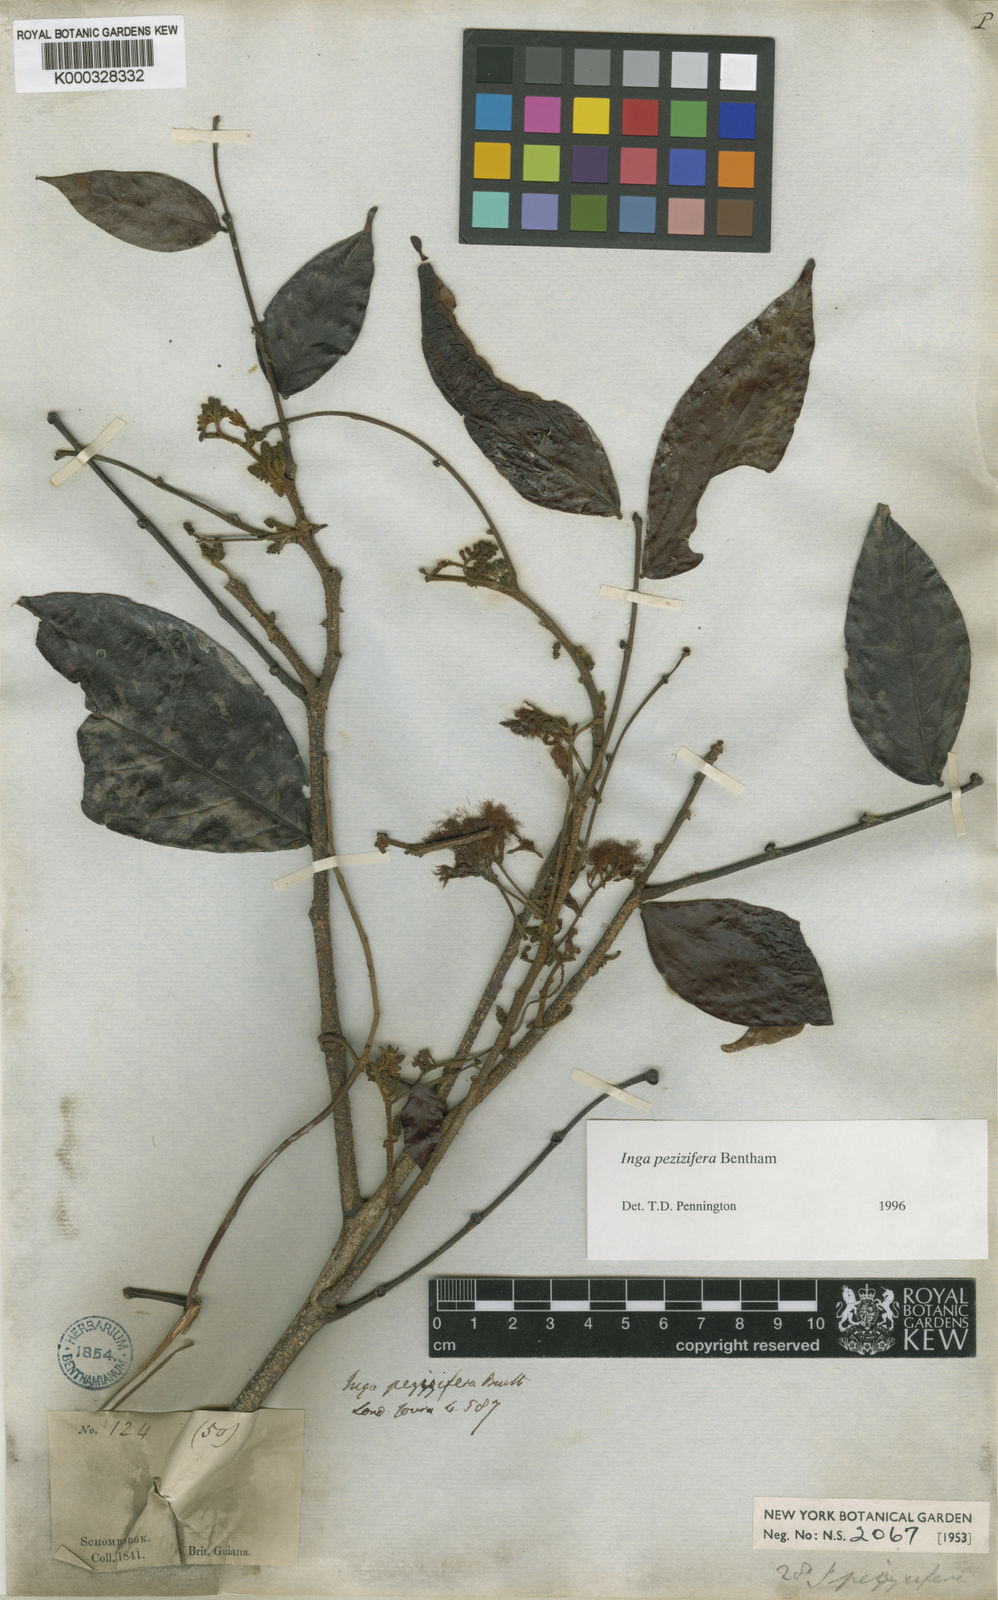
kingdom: Plantae
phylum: Tracheophyta
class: Magnoliopsida
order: Fabales
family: Fabaceae
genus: Inga
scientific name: Inga pezizifera
